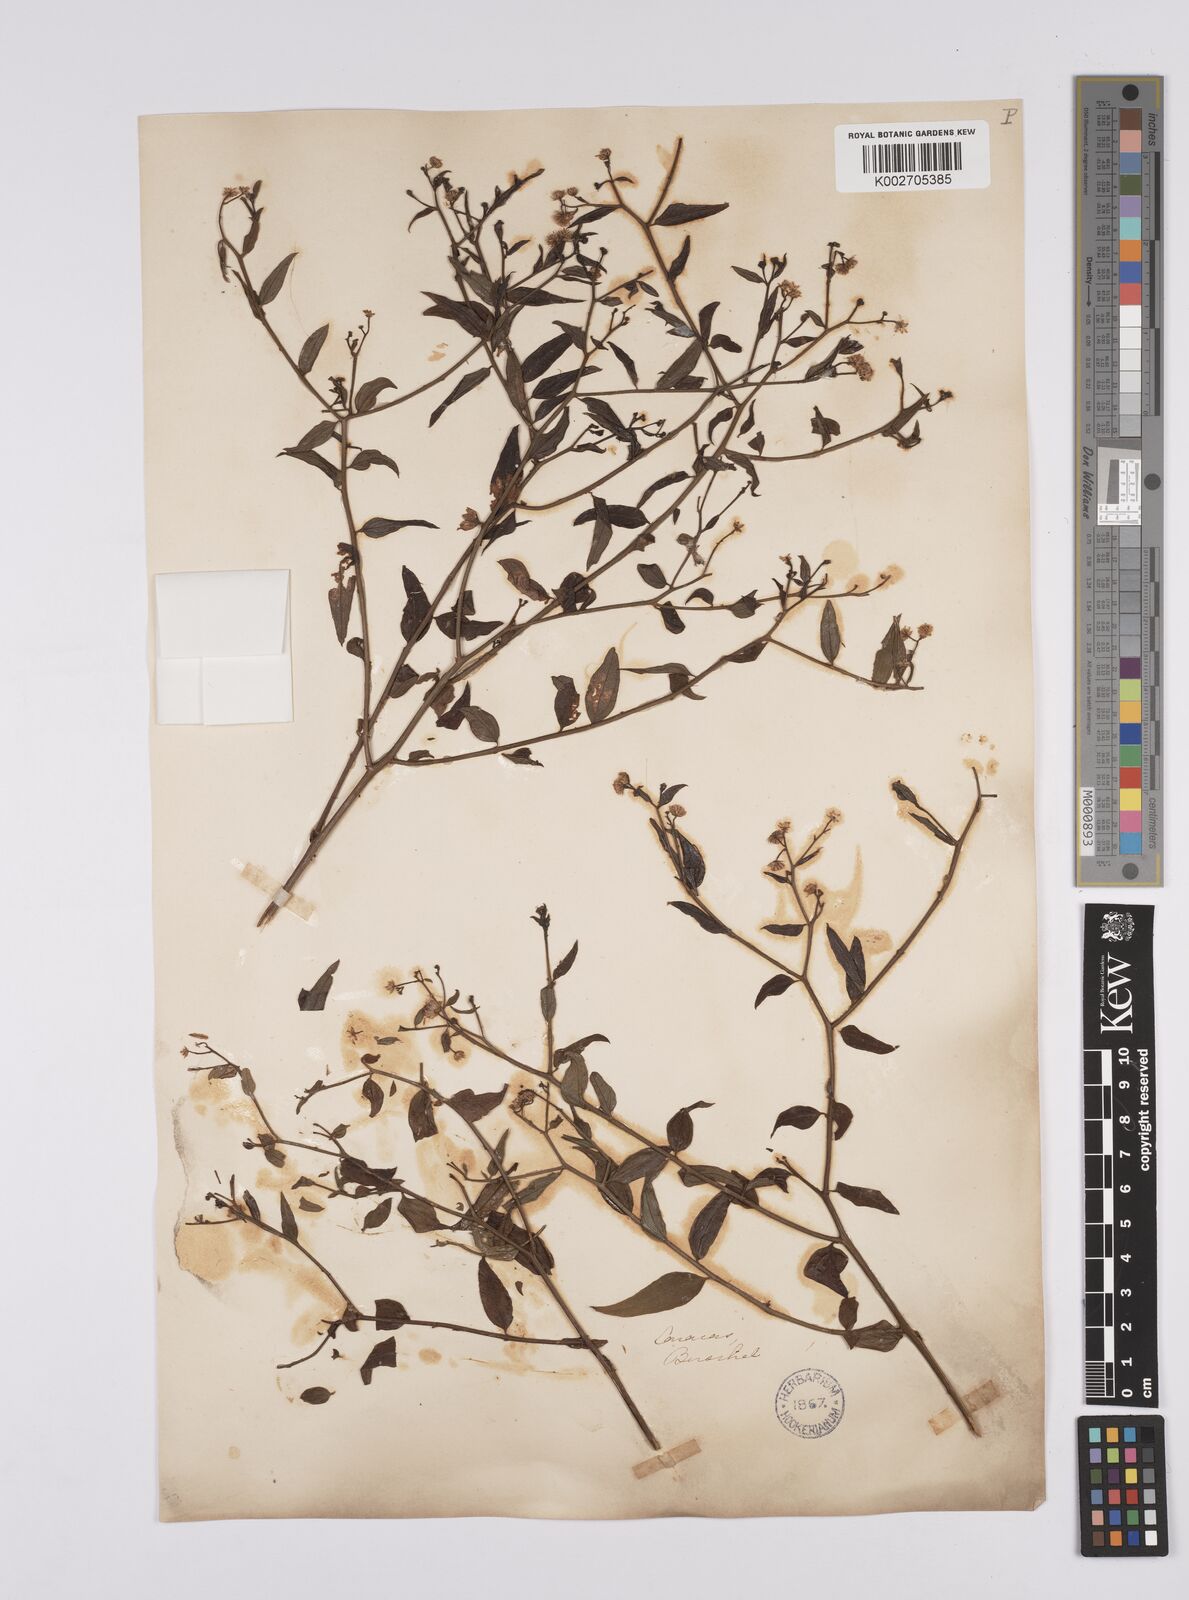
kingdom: Plantae
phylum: Tracheophyta
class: Magnoliopsida
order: Asterales
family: Asteraceae
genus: Baccharis
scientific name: Baccharis trinervis
